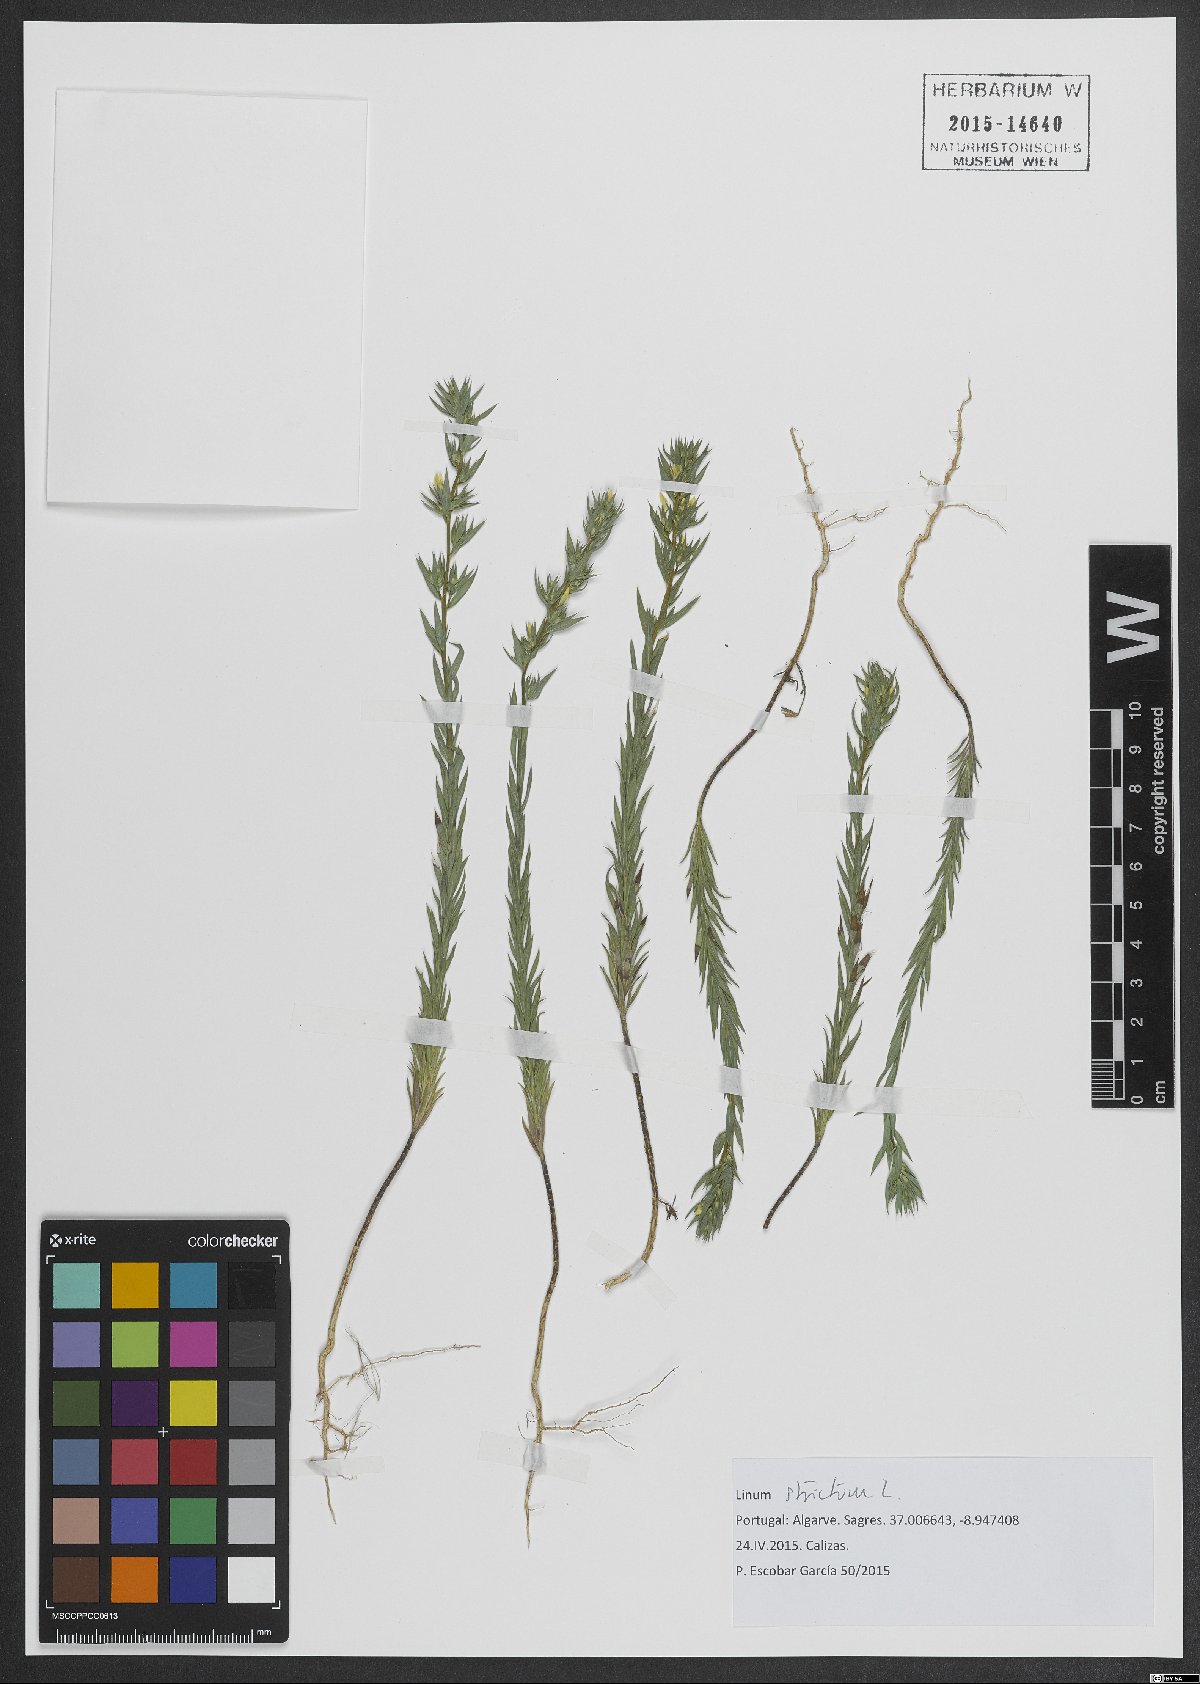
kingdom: Plantae
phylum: Tracheophyta
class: Magnoliopsida
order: Malpighiales
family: Linaceae
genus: Linum
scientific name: Linum strictum
